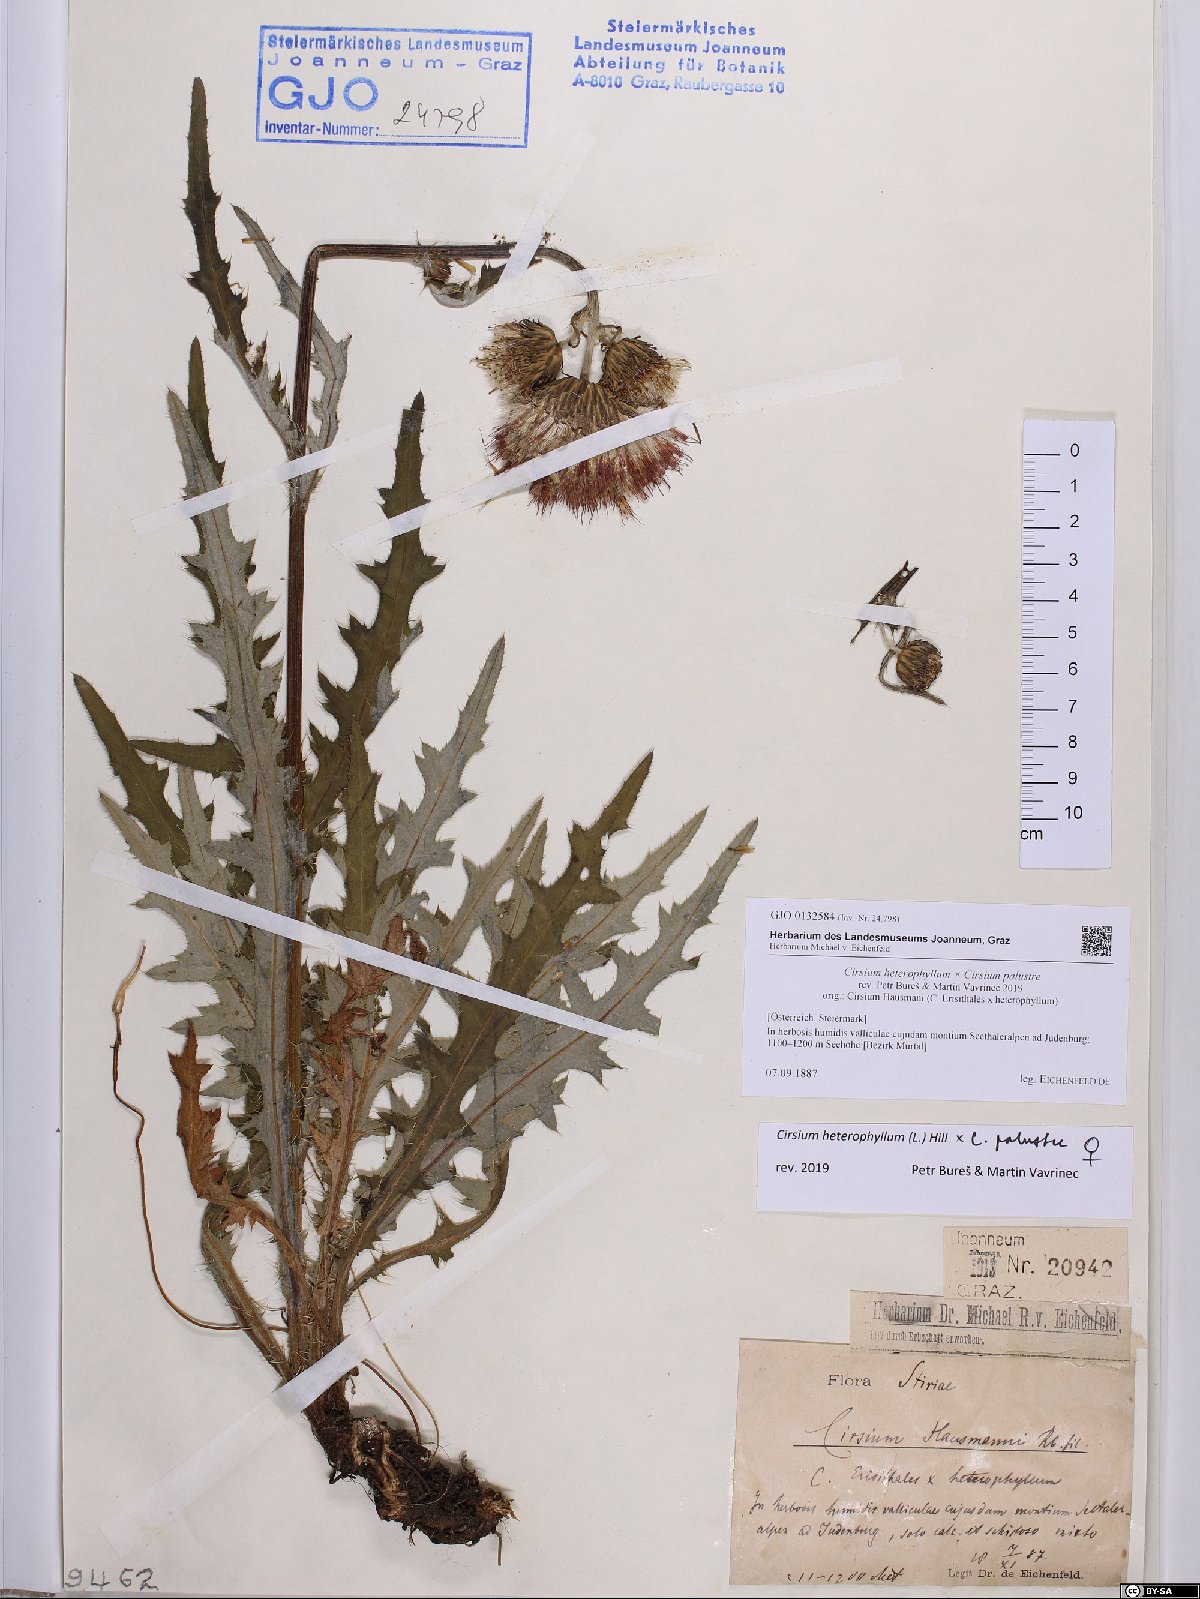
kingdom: Plantae
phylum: Tracheophyta
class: Magnoliopsida
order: Asterales
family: Asteraceae
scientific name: Asteraceae
